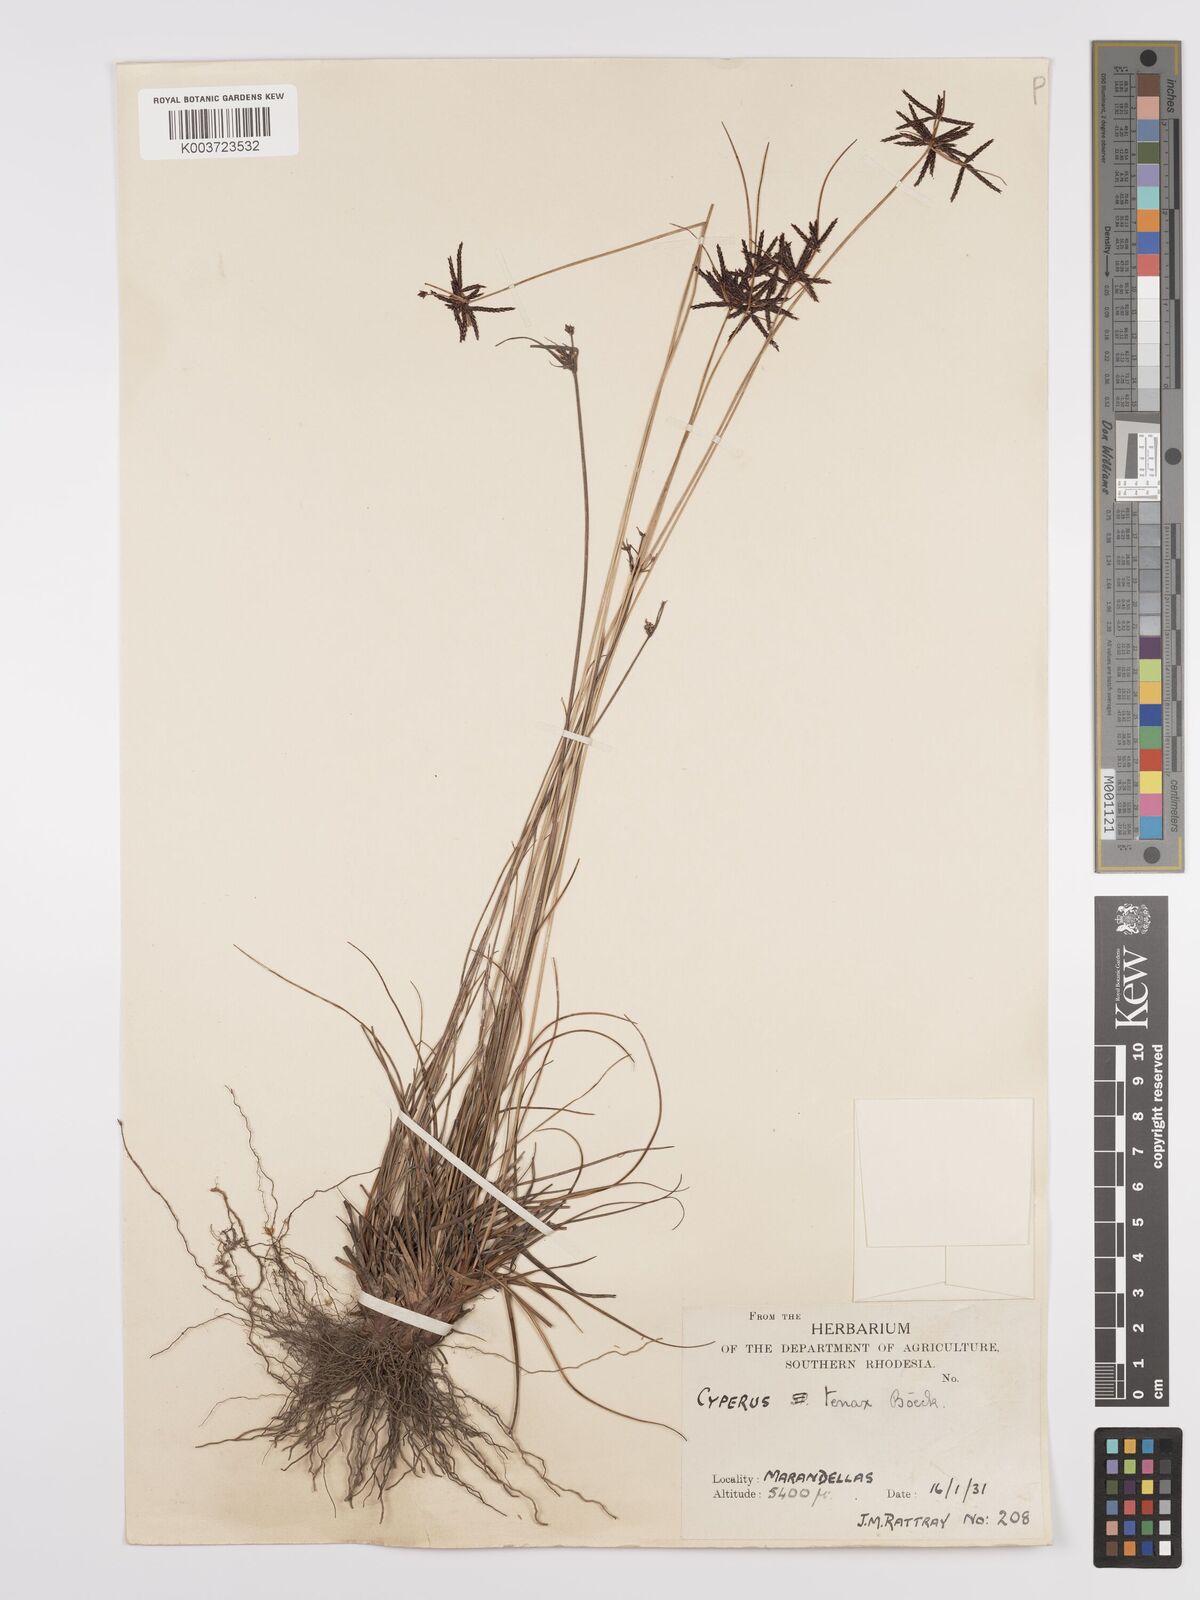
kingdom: Plantae
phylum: Tracheophyta
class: Liliopsida
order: Poales
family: Cyperaceae
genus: Cyperus
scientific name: Cyperus tenax
